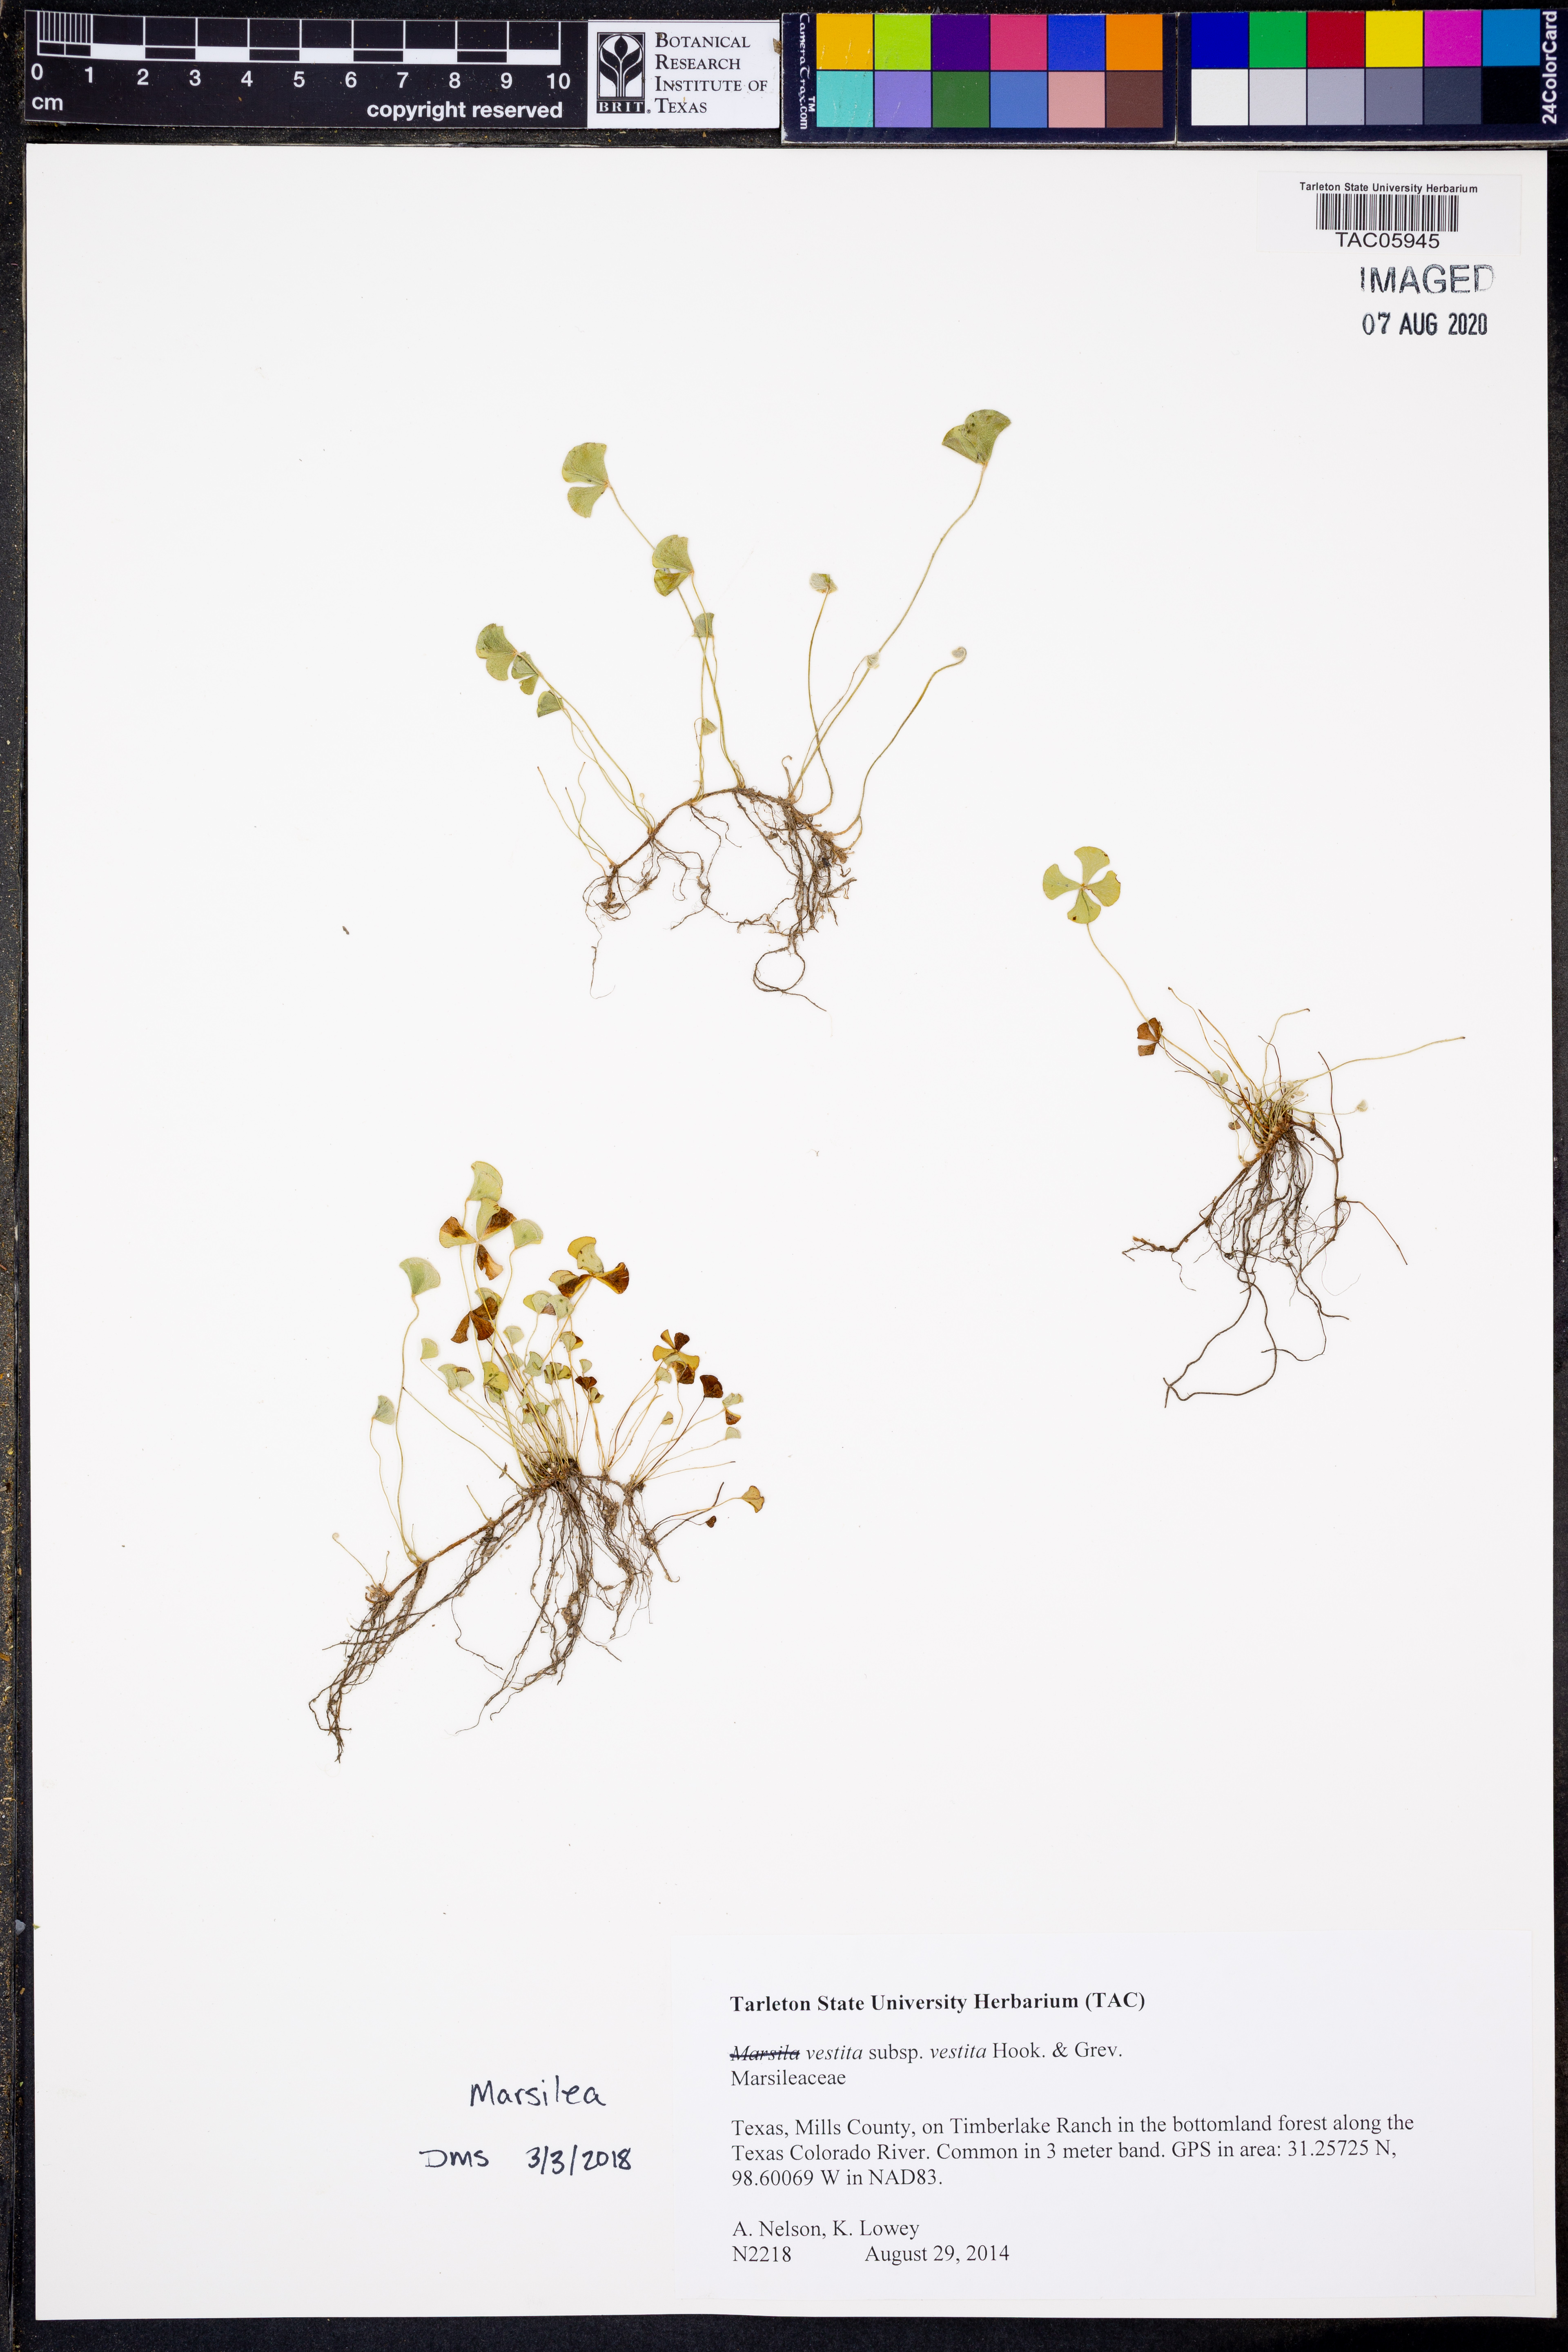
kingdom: Plantae
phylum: Tracheophyta
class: Polypodiopsida
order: Salviniales
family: Marsileaceae
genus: Marsilea
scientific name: Marsilea vestita
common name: Hooked-pepperwort
